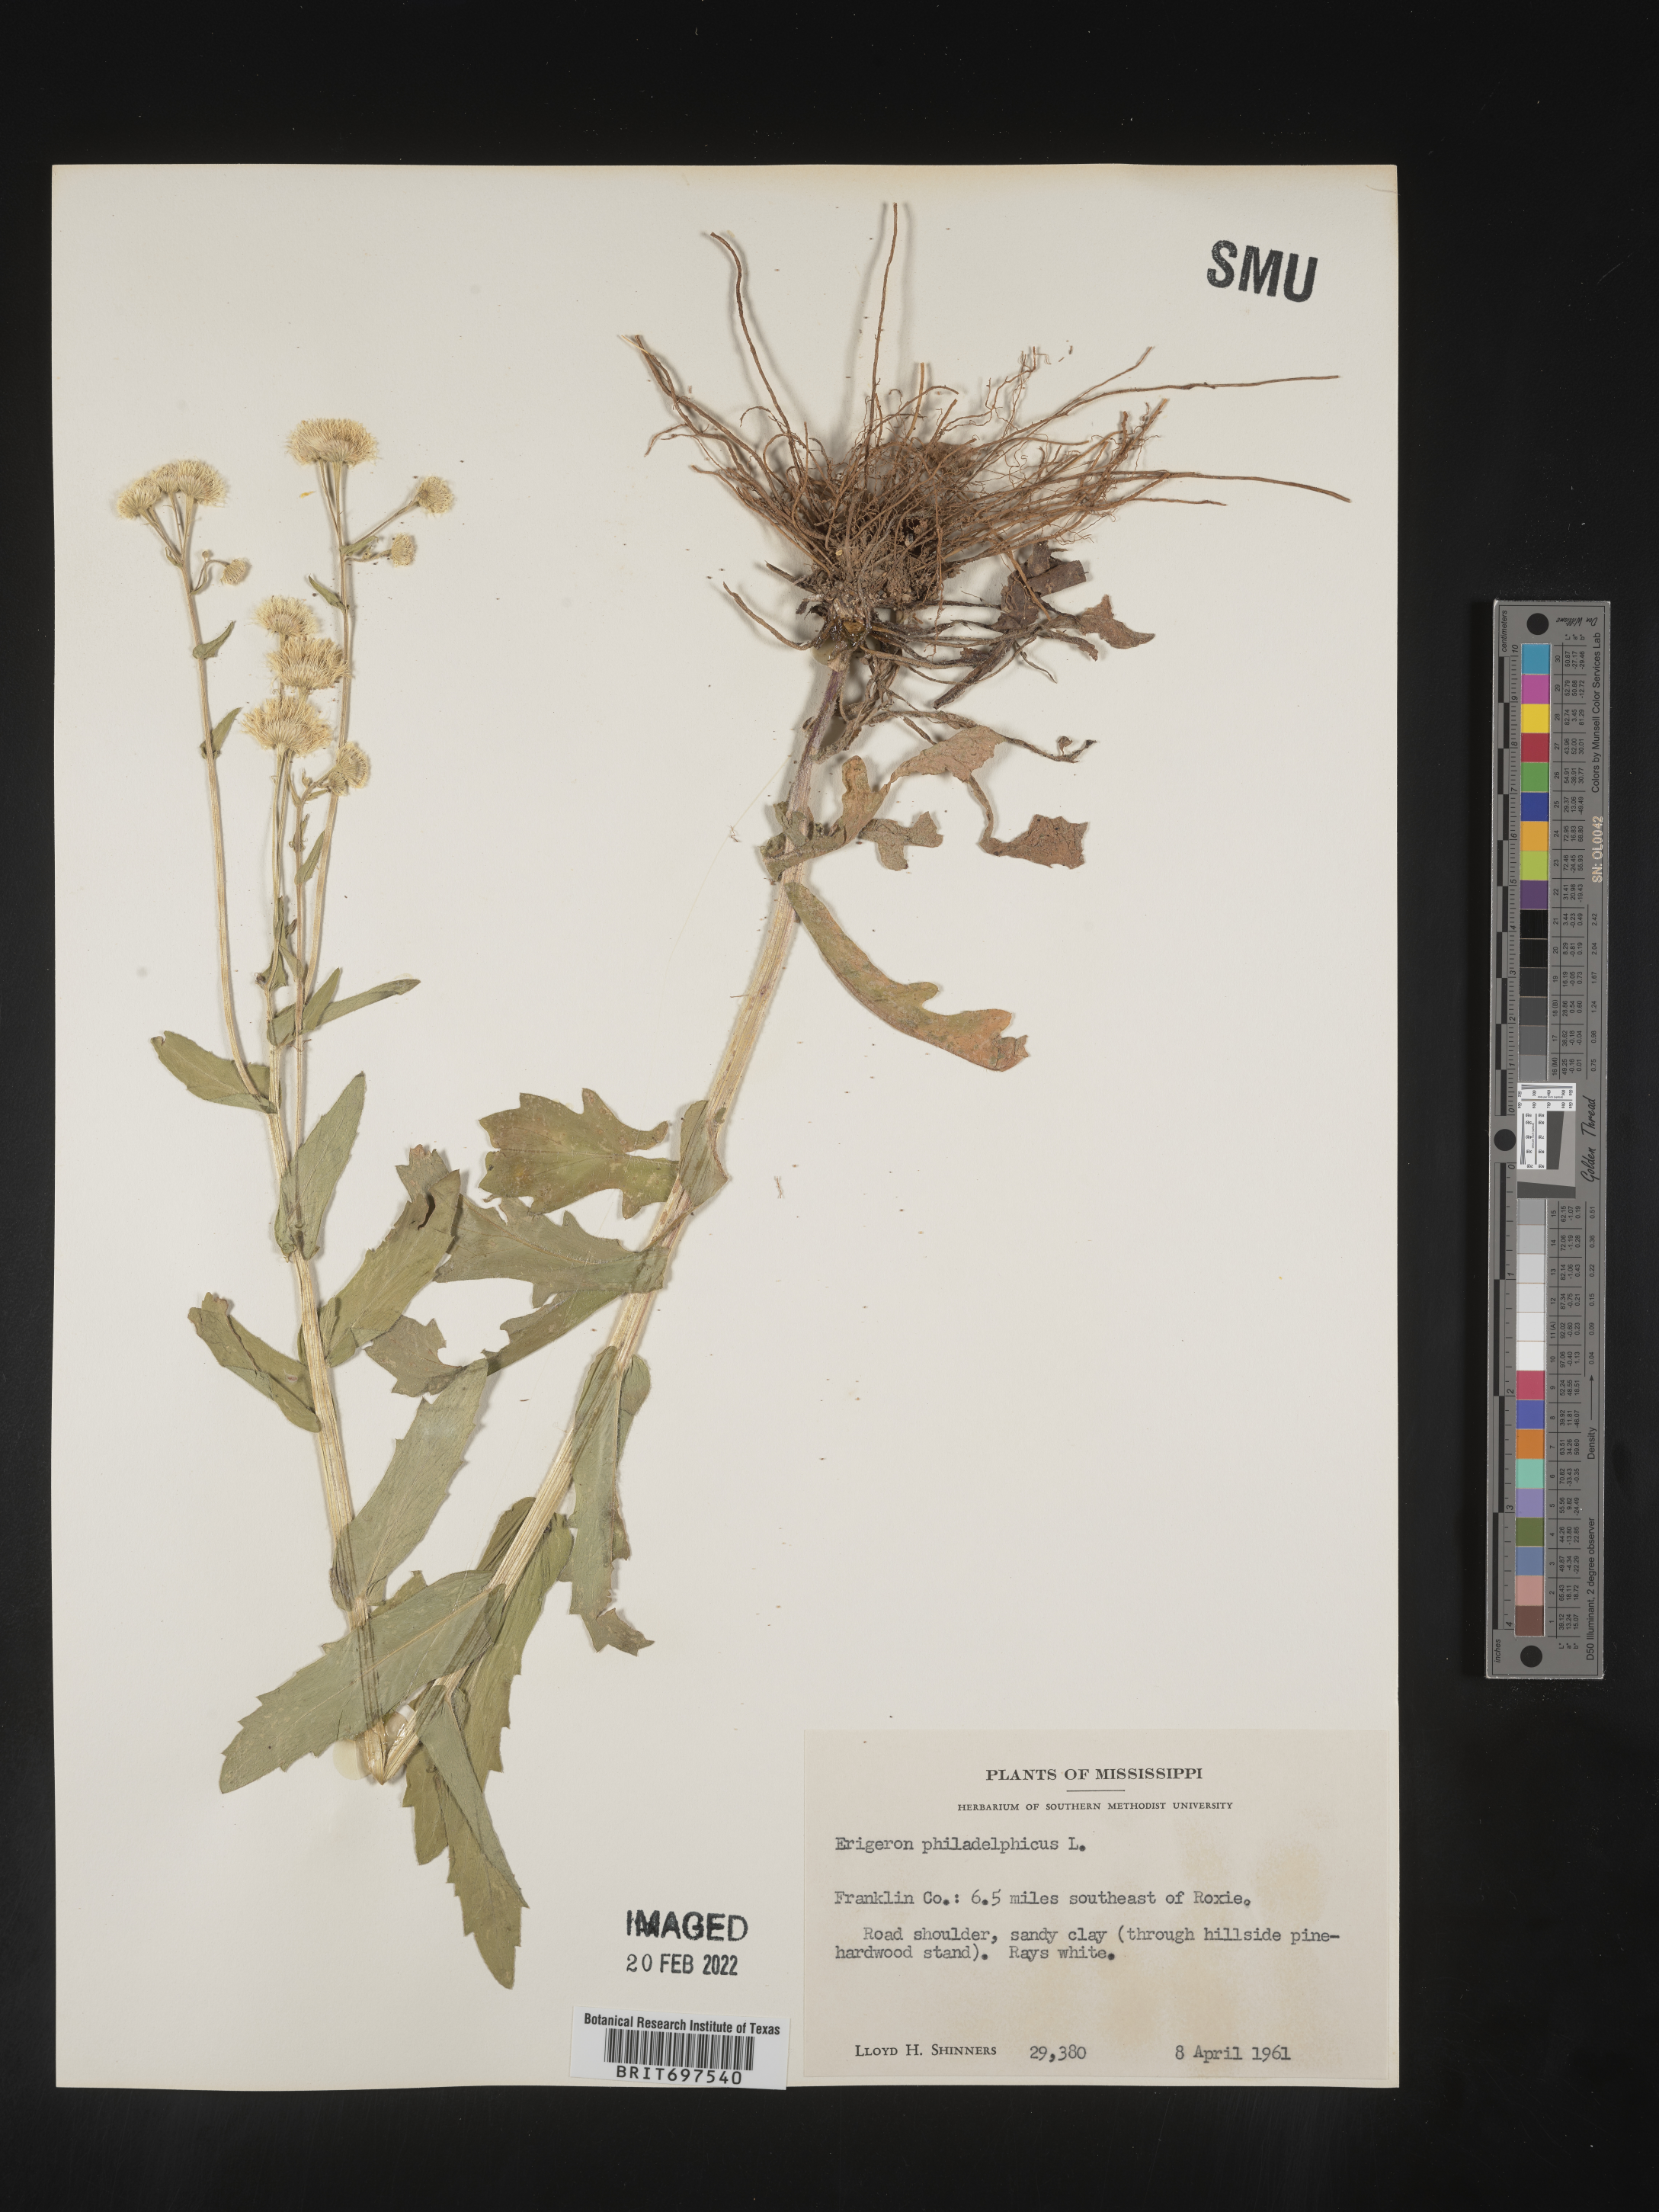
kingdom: Plantae
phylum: Tracheophyta
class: Magnoliopsida
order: Asterales
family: Asteraceae
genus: Erigeron
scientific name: Erigeron philadelphicus
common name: Robin's-plantain
